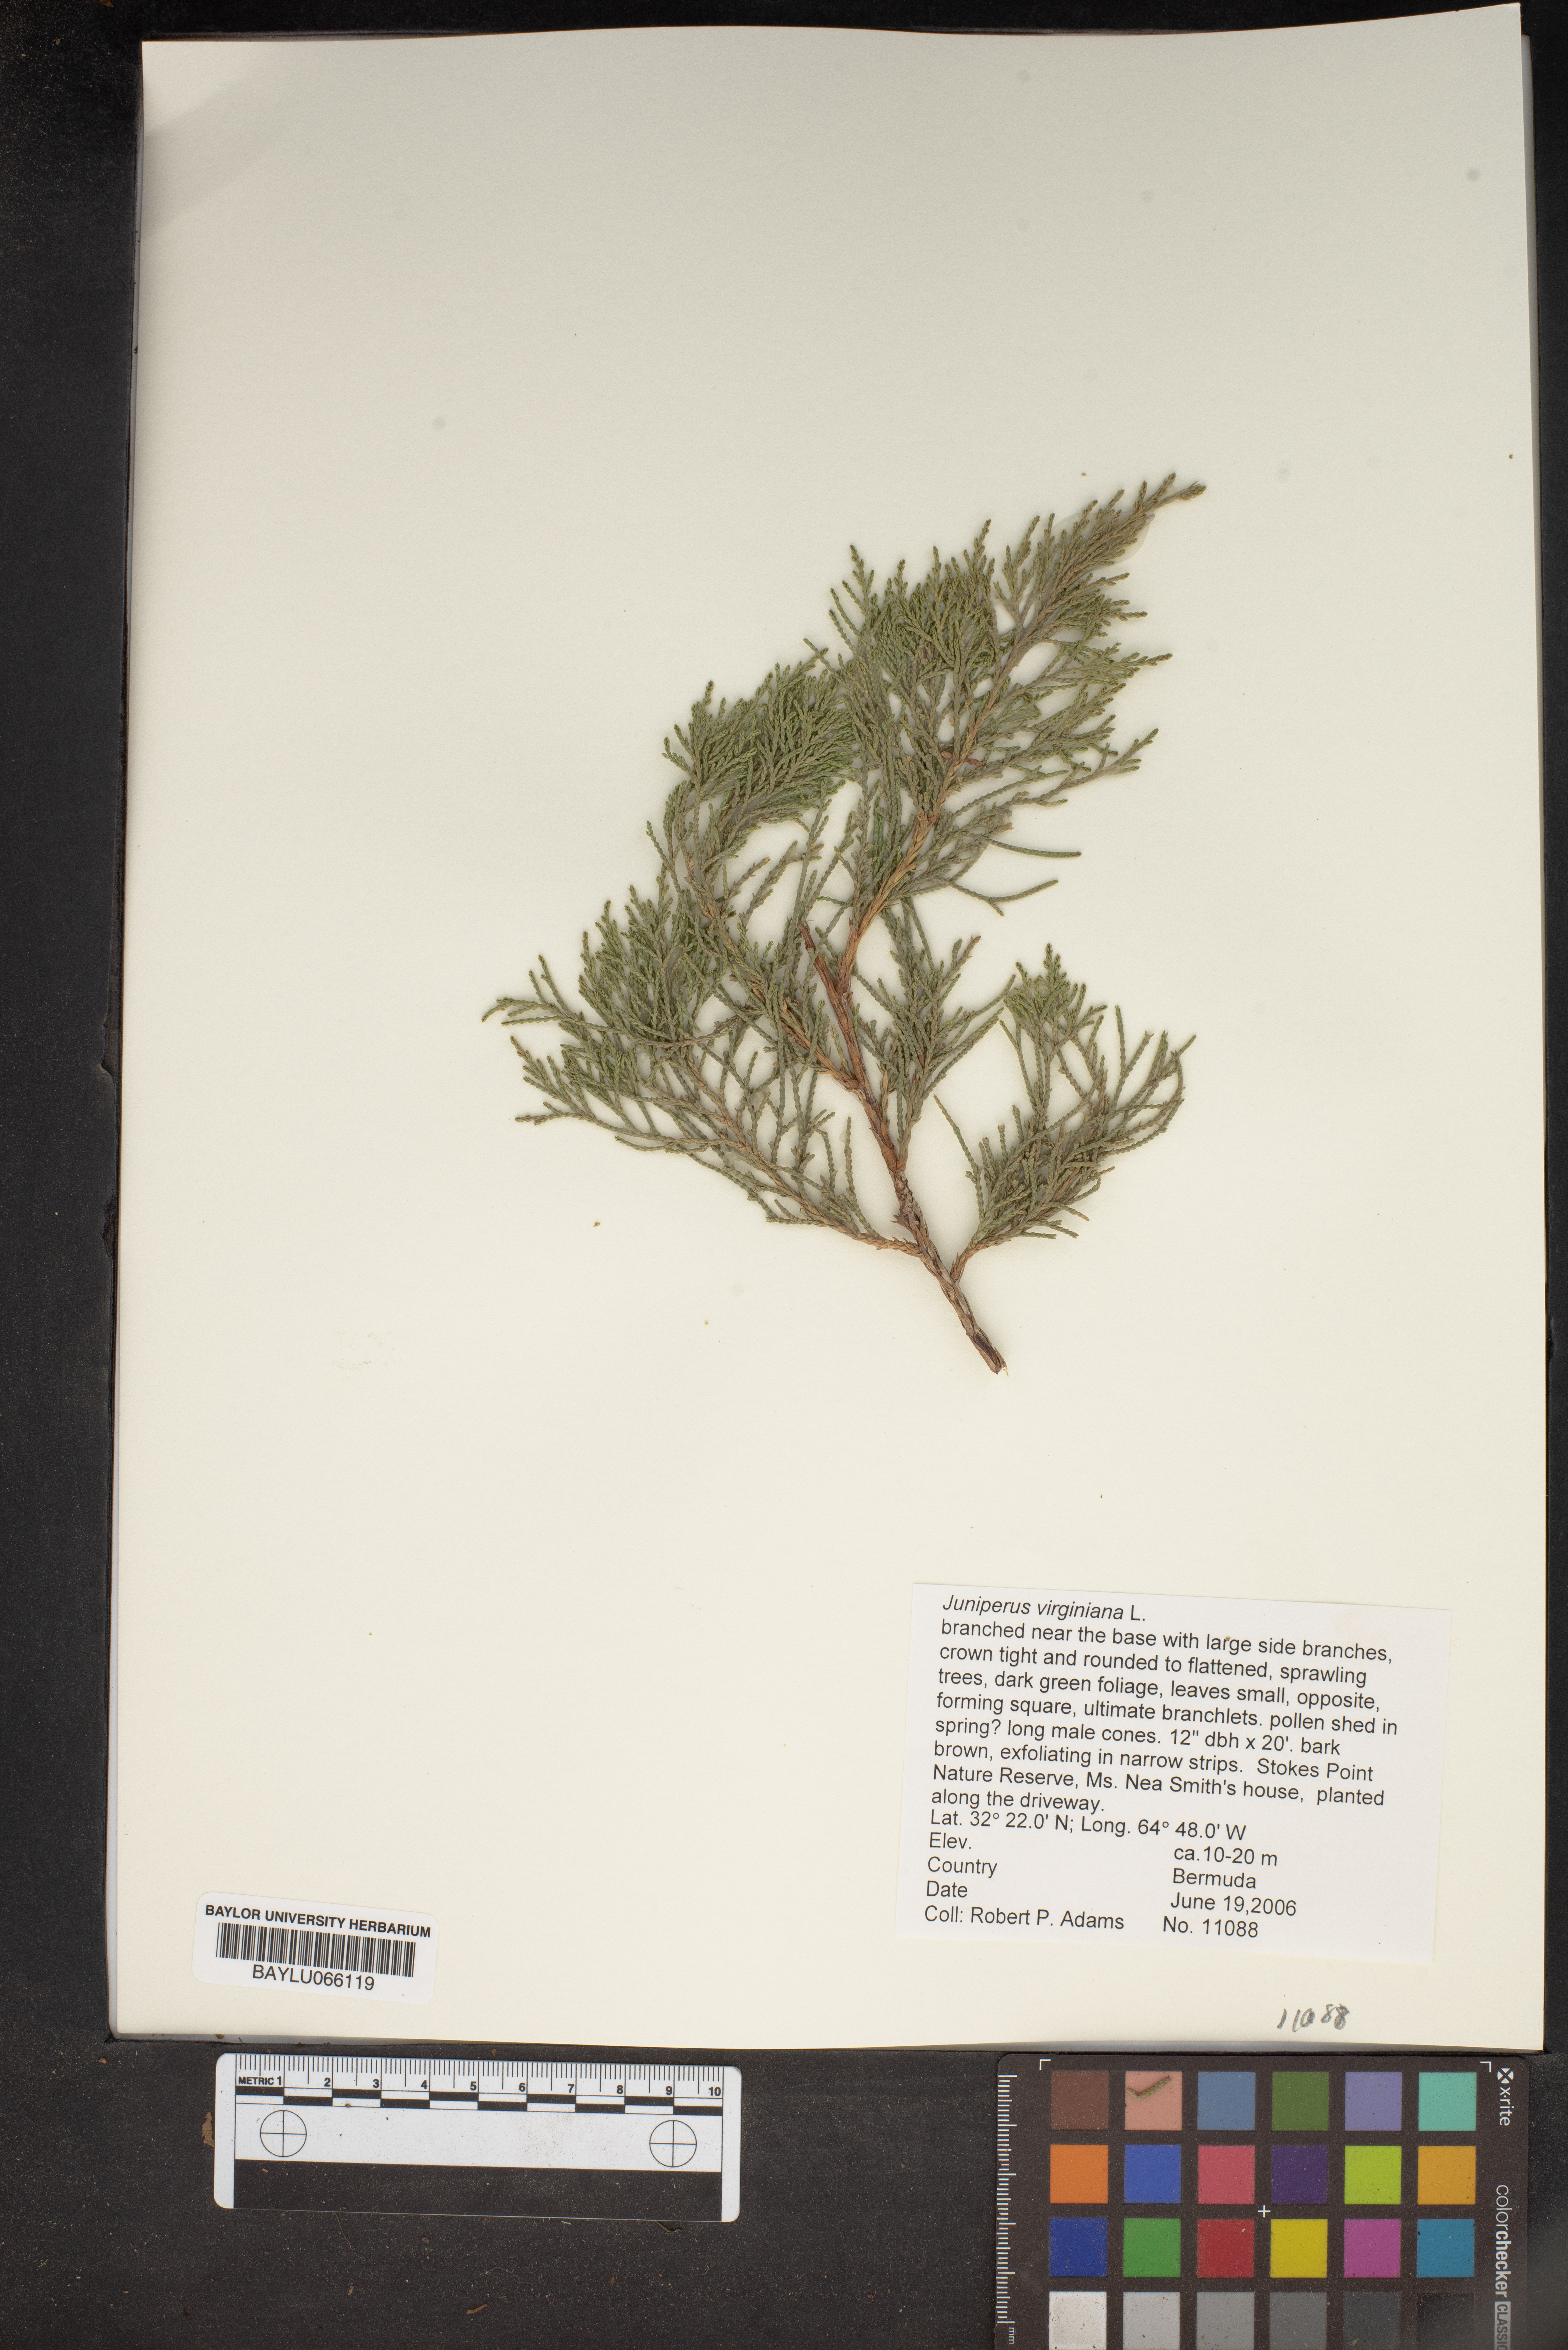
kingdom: Plantae
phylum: Tracheophyta
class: Pinopsida
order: Pinales
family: Cupressaceae
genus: Juniperus
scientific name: Juniperus virginiana
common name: Red juniper
